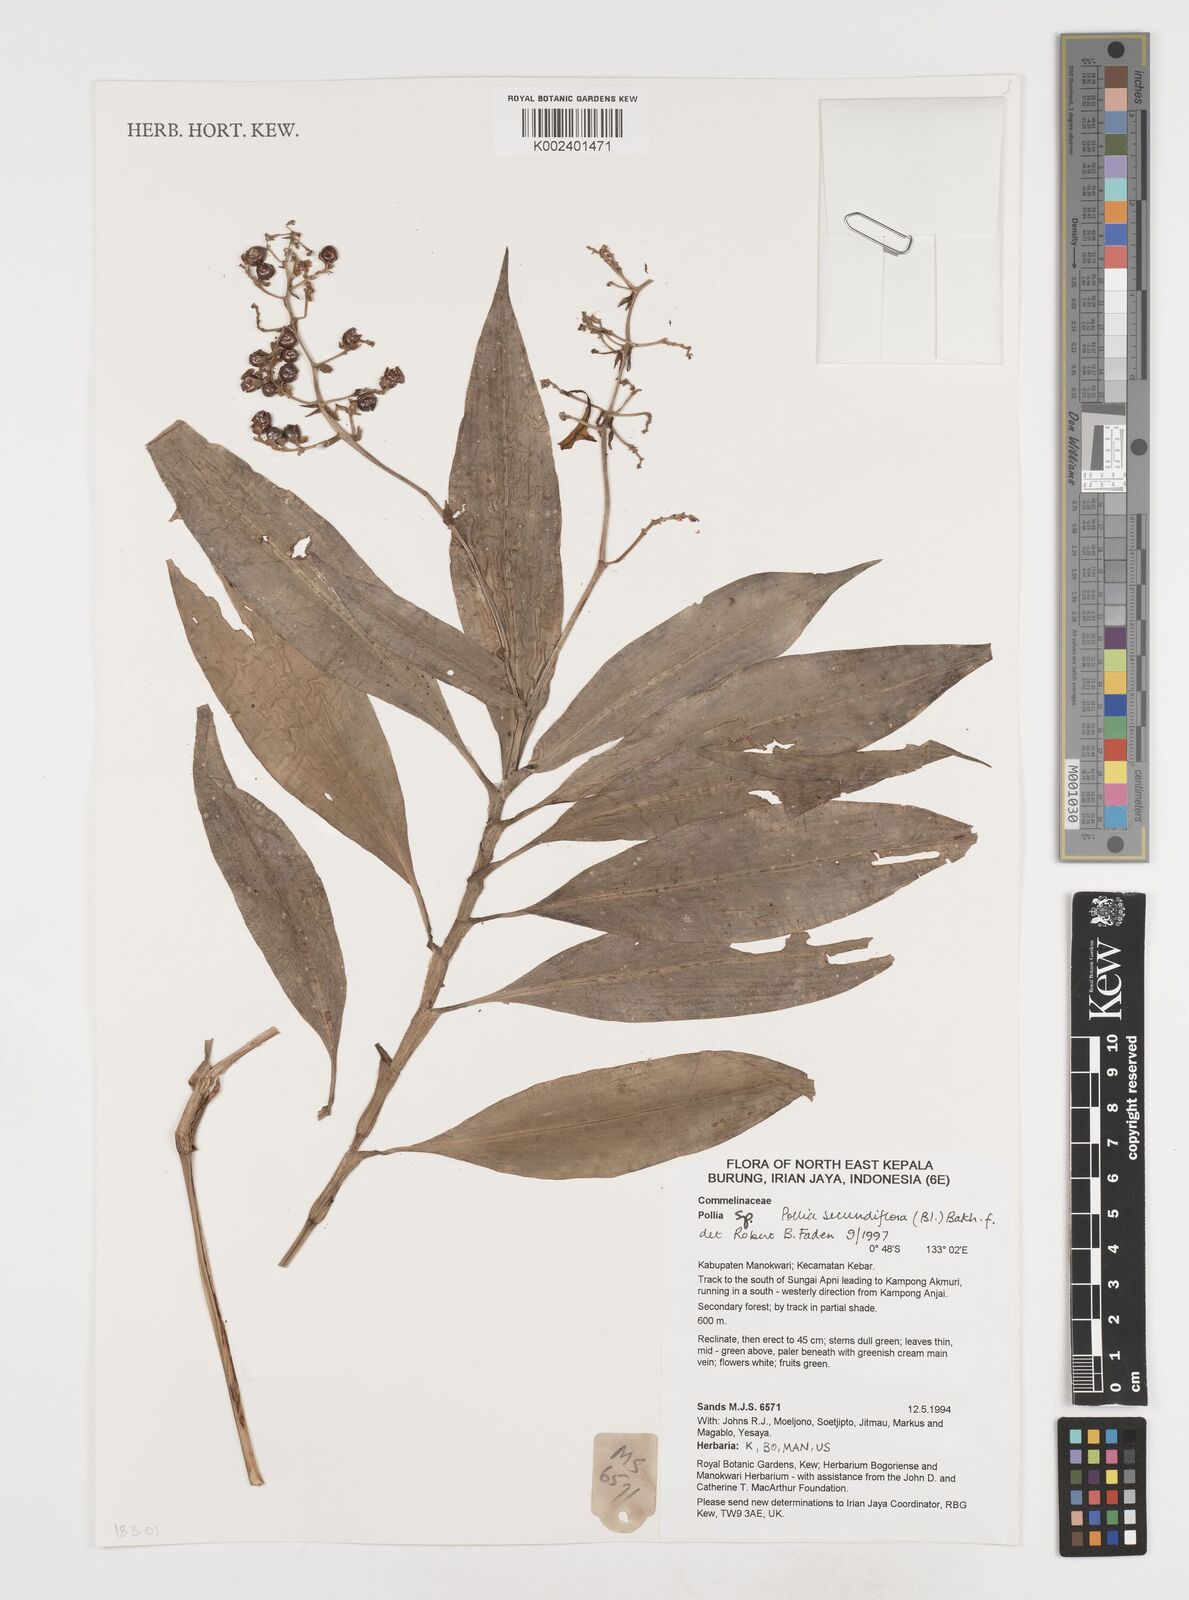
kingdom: Plantae
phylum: Tracheophyta
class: Liliopsida
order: Commelinales
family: Commelinaceae
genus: Pollia
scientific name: Pollia secundiflora
